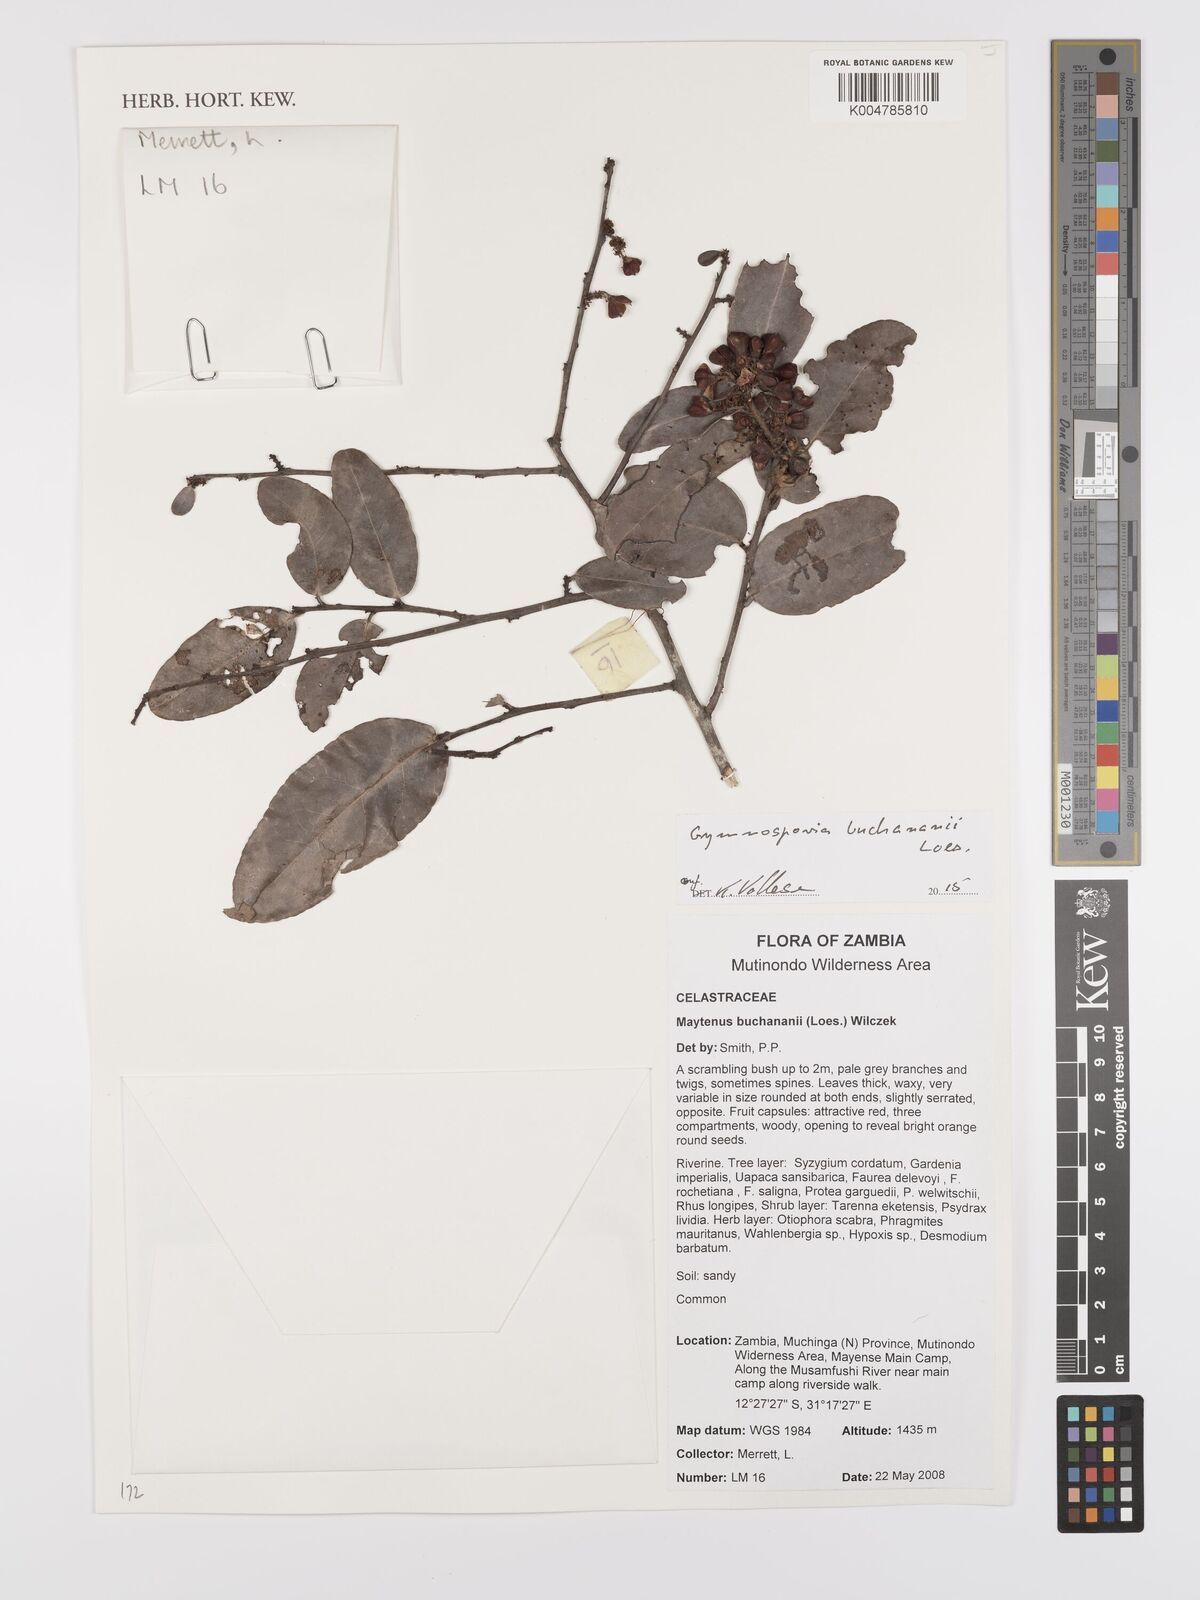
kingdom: Plantae
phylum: Tracheophyta
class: Magnoliopsida
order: Celastrales
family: Celastraceae
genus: Gymnosporia
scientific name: Gymnosporia buchananii
